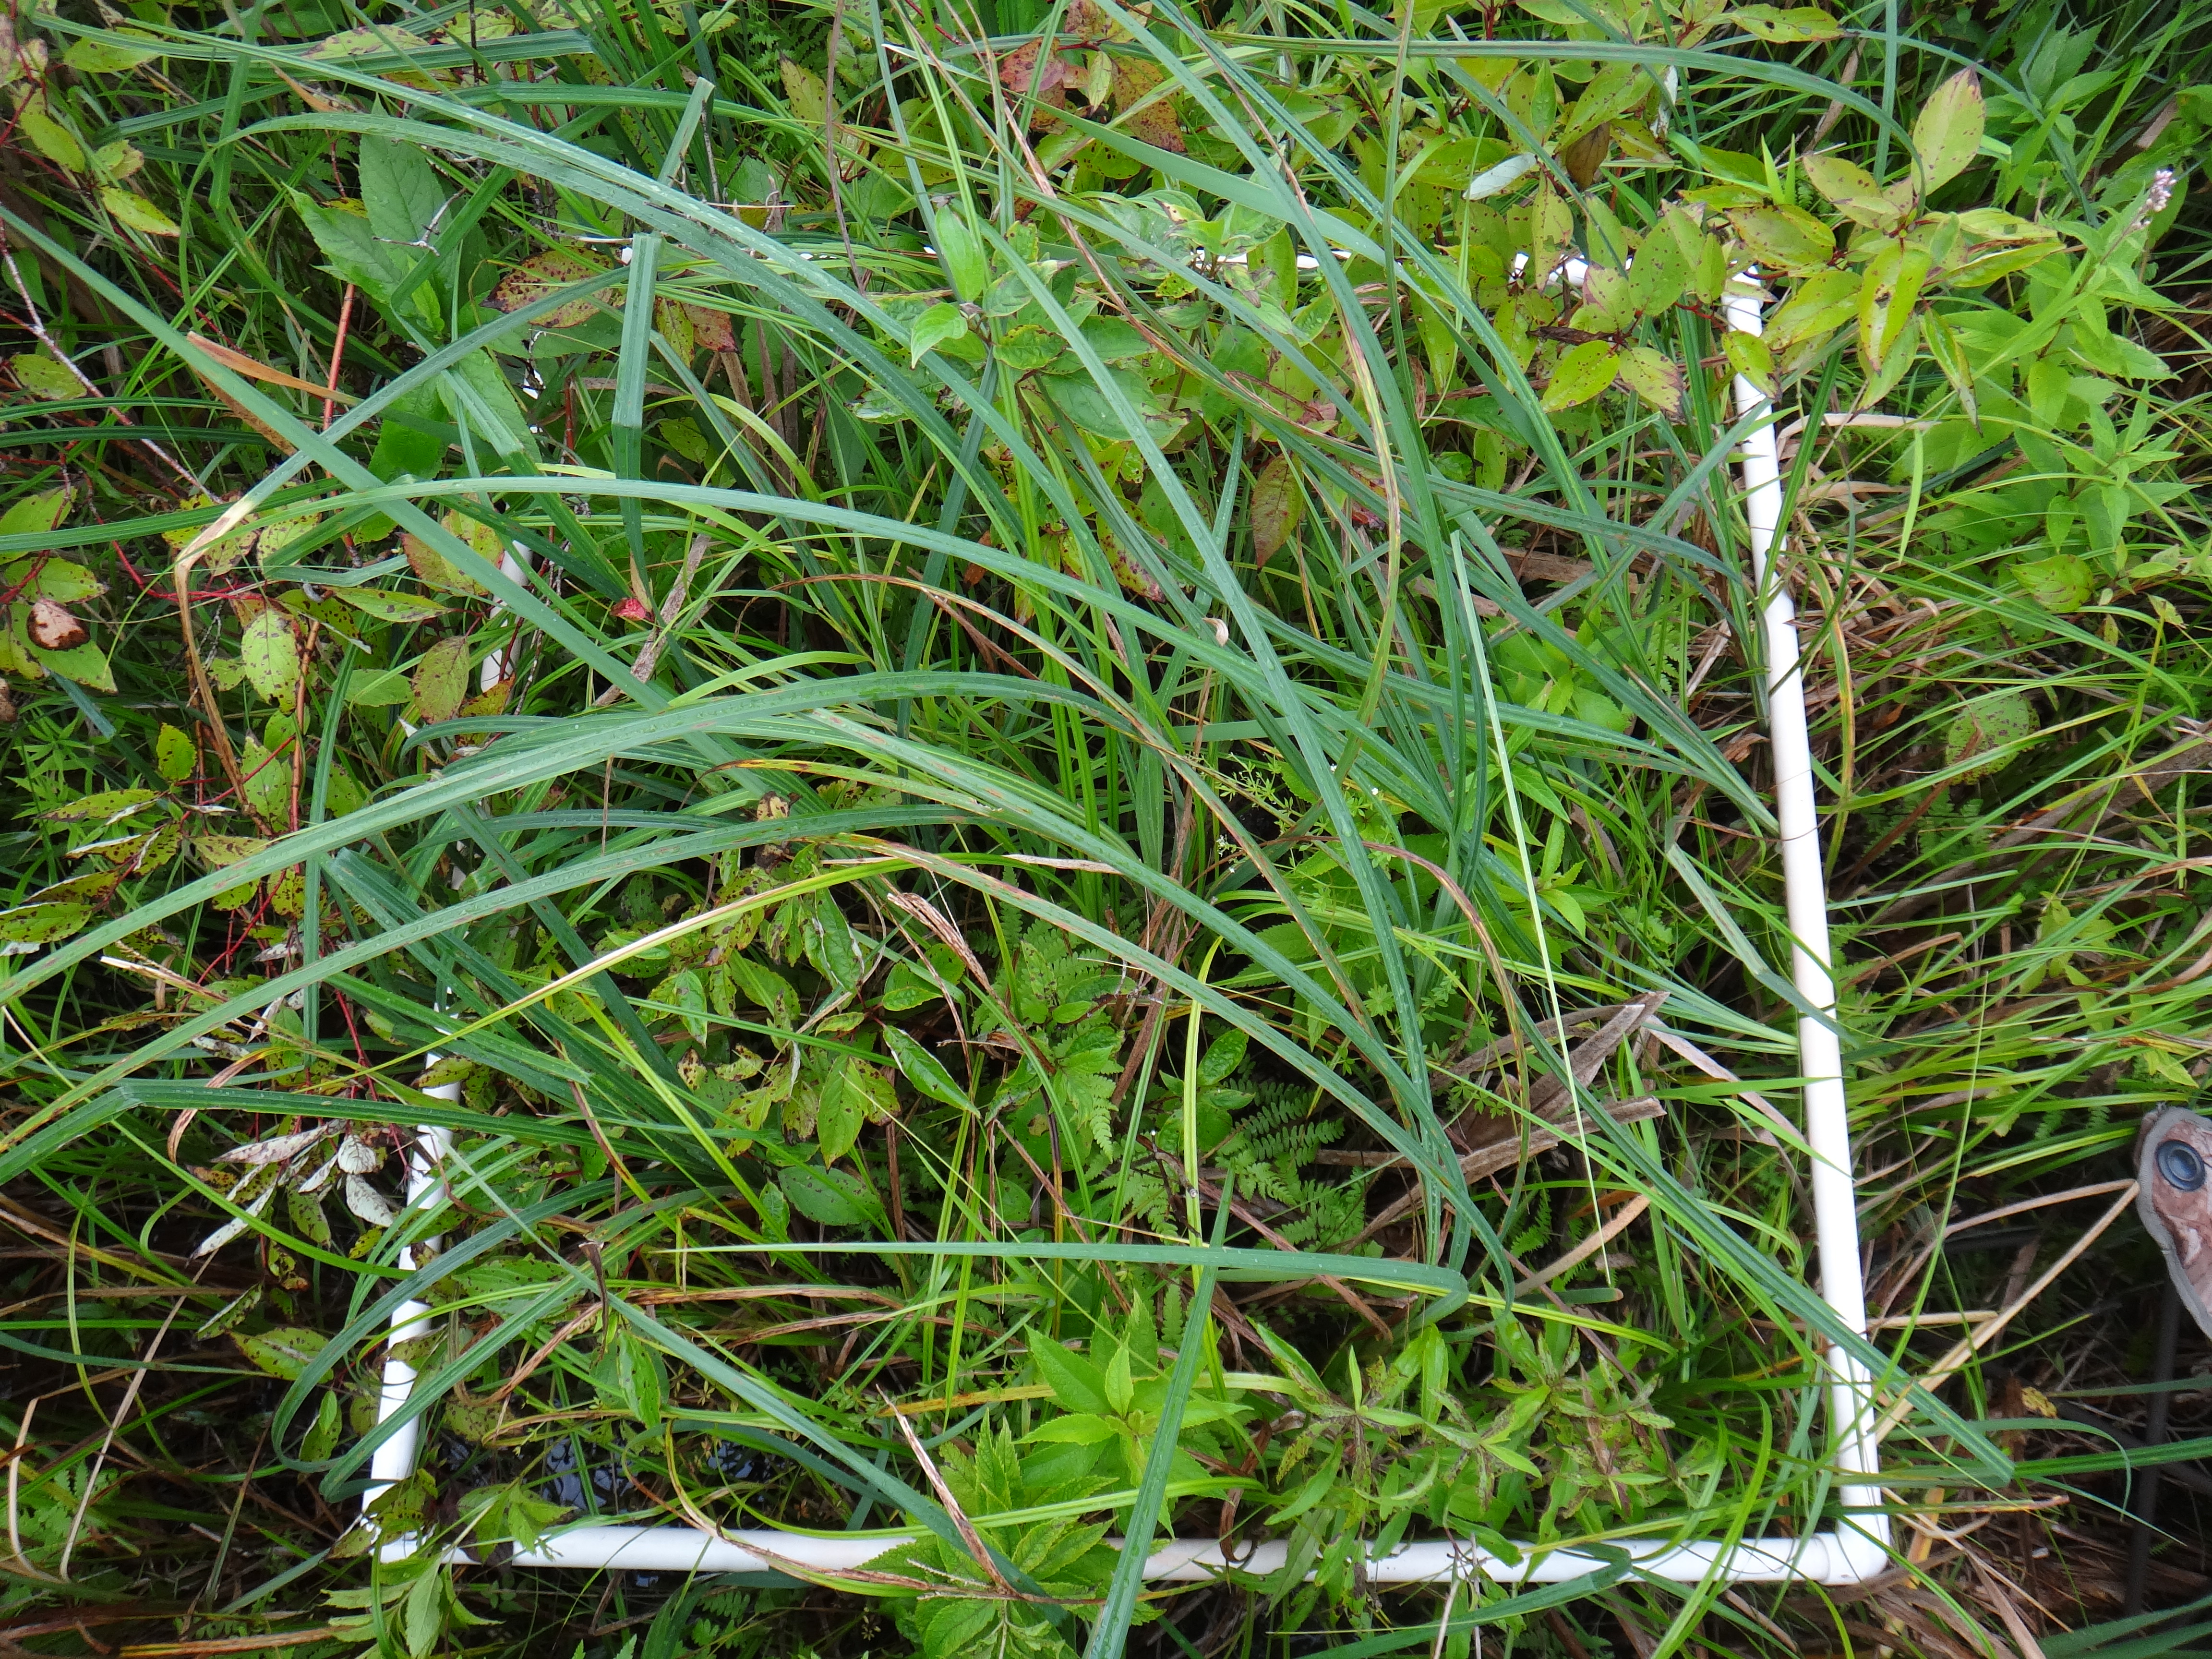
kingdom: Plantae
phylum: Tracheophyta
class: Liliopsida
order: Poales
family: Cyperaceae
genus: Carex
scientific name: Carex lacustris
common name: Common lake sedge
